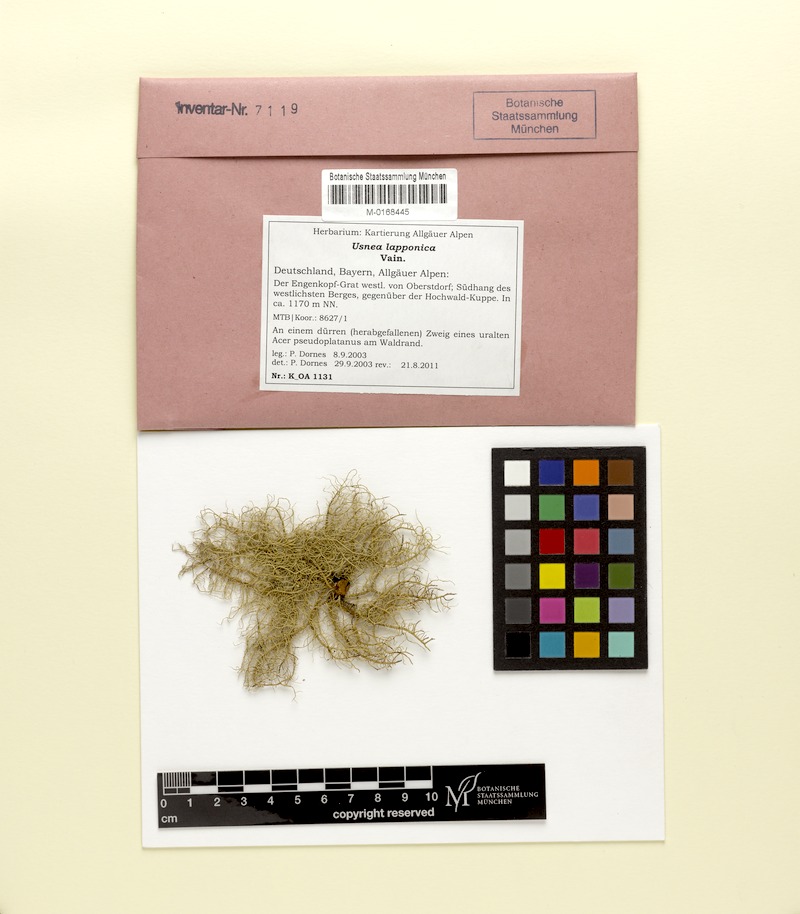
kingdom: Fungi
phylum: Ascomycota
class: Lecanoromycetes
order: Lecanorales
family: Parmeliaceae
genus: Usnea
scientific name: Usnea lapponica
